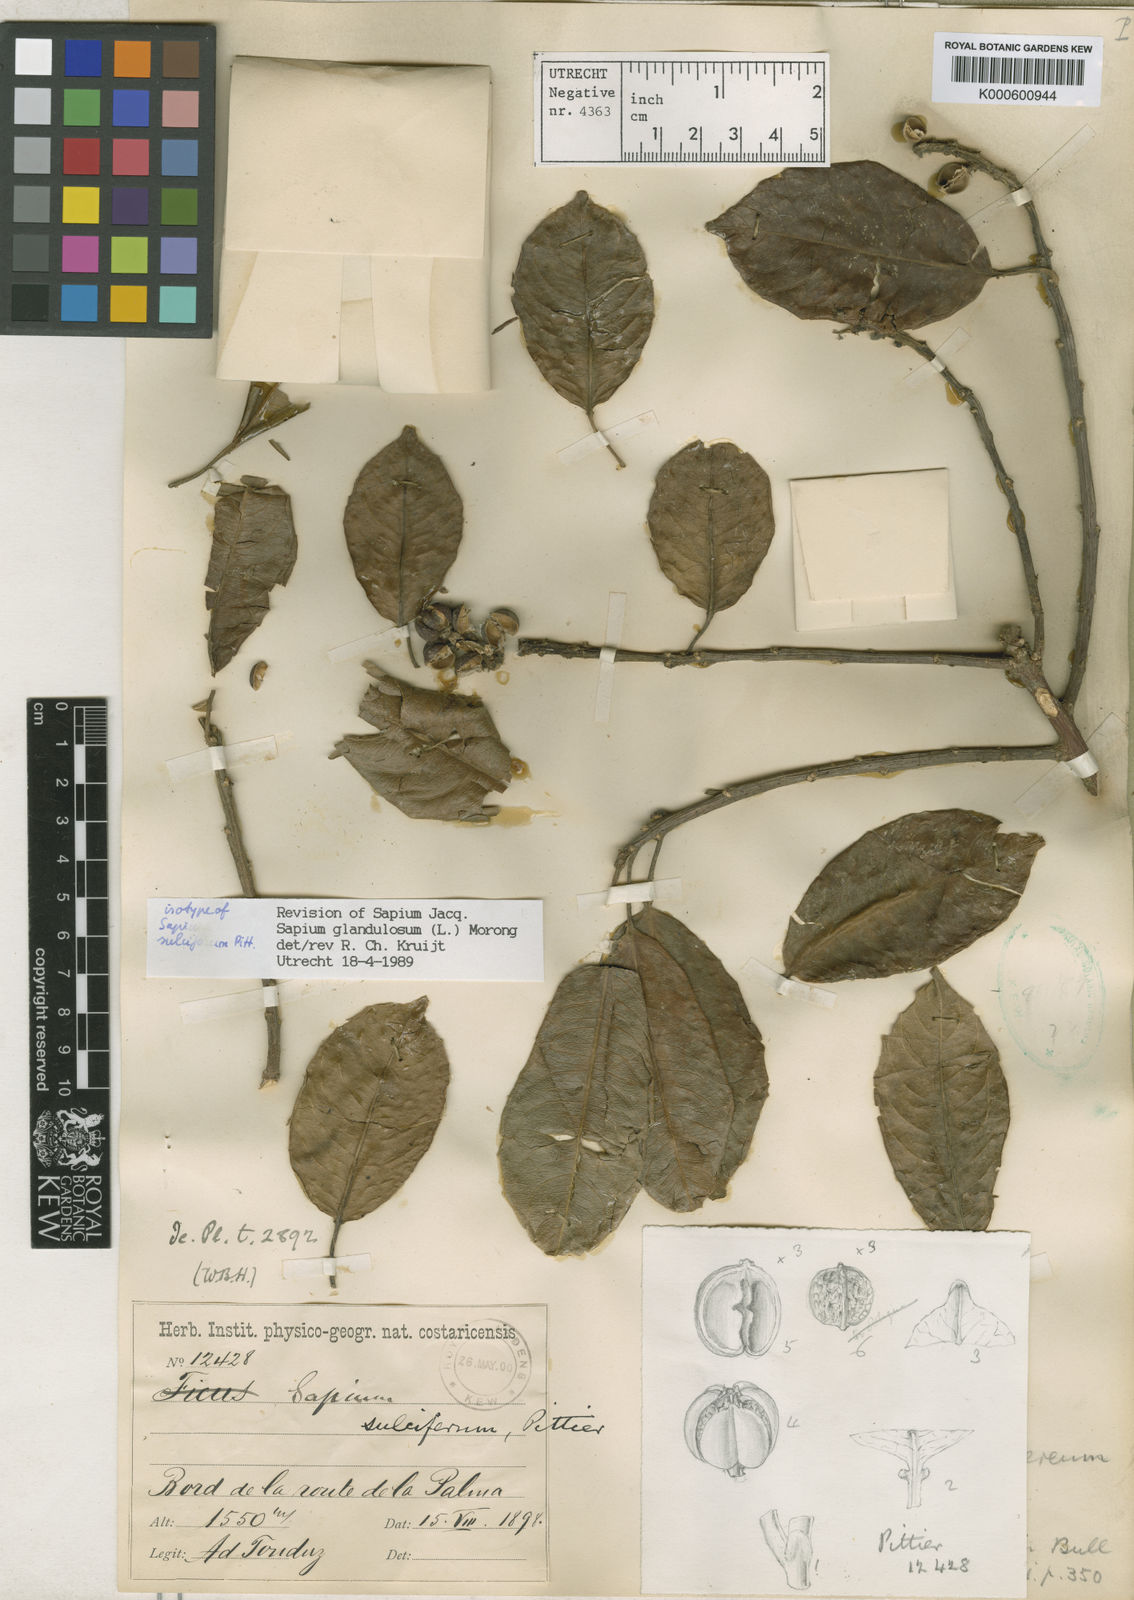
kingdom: Plantae
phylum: Tracheophyta
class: Magnoliopsida
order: Malpighiales
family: Euphorbiaceae
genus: Sapium
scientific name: Sapium glandulosum
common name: Milktree
